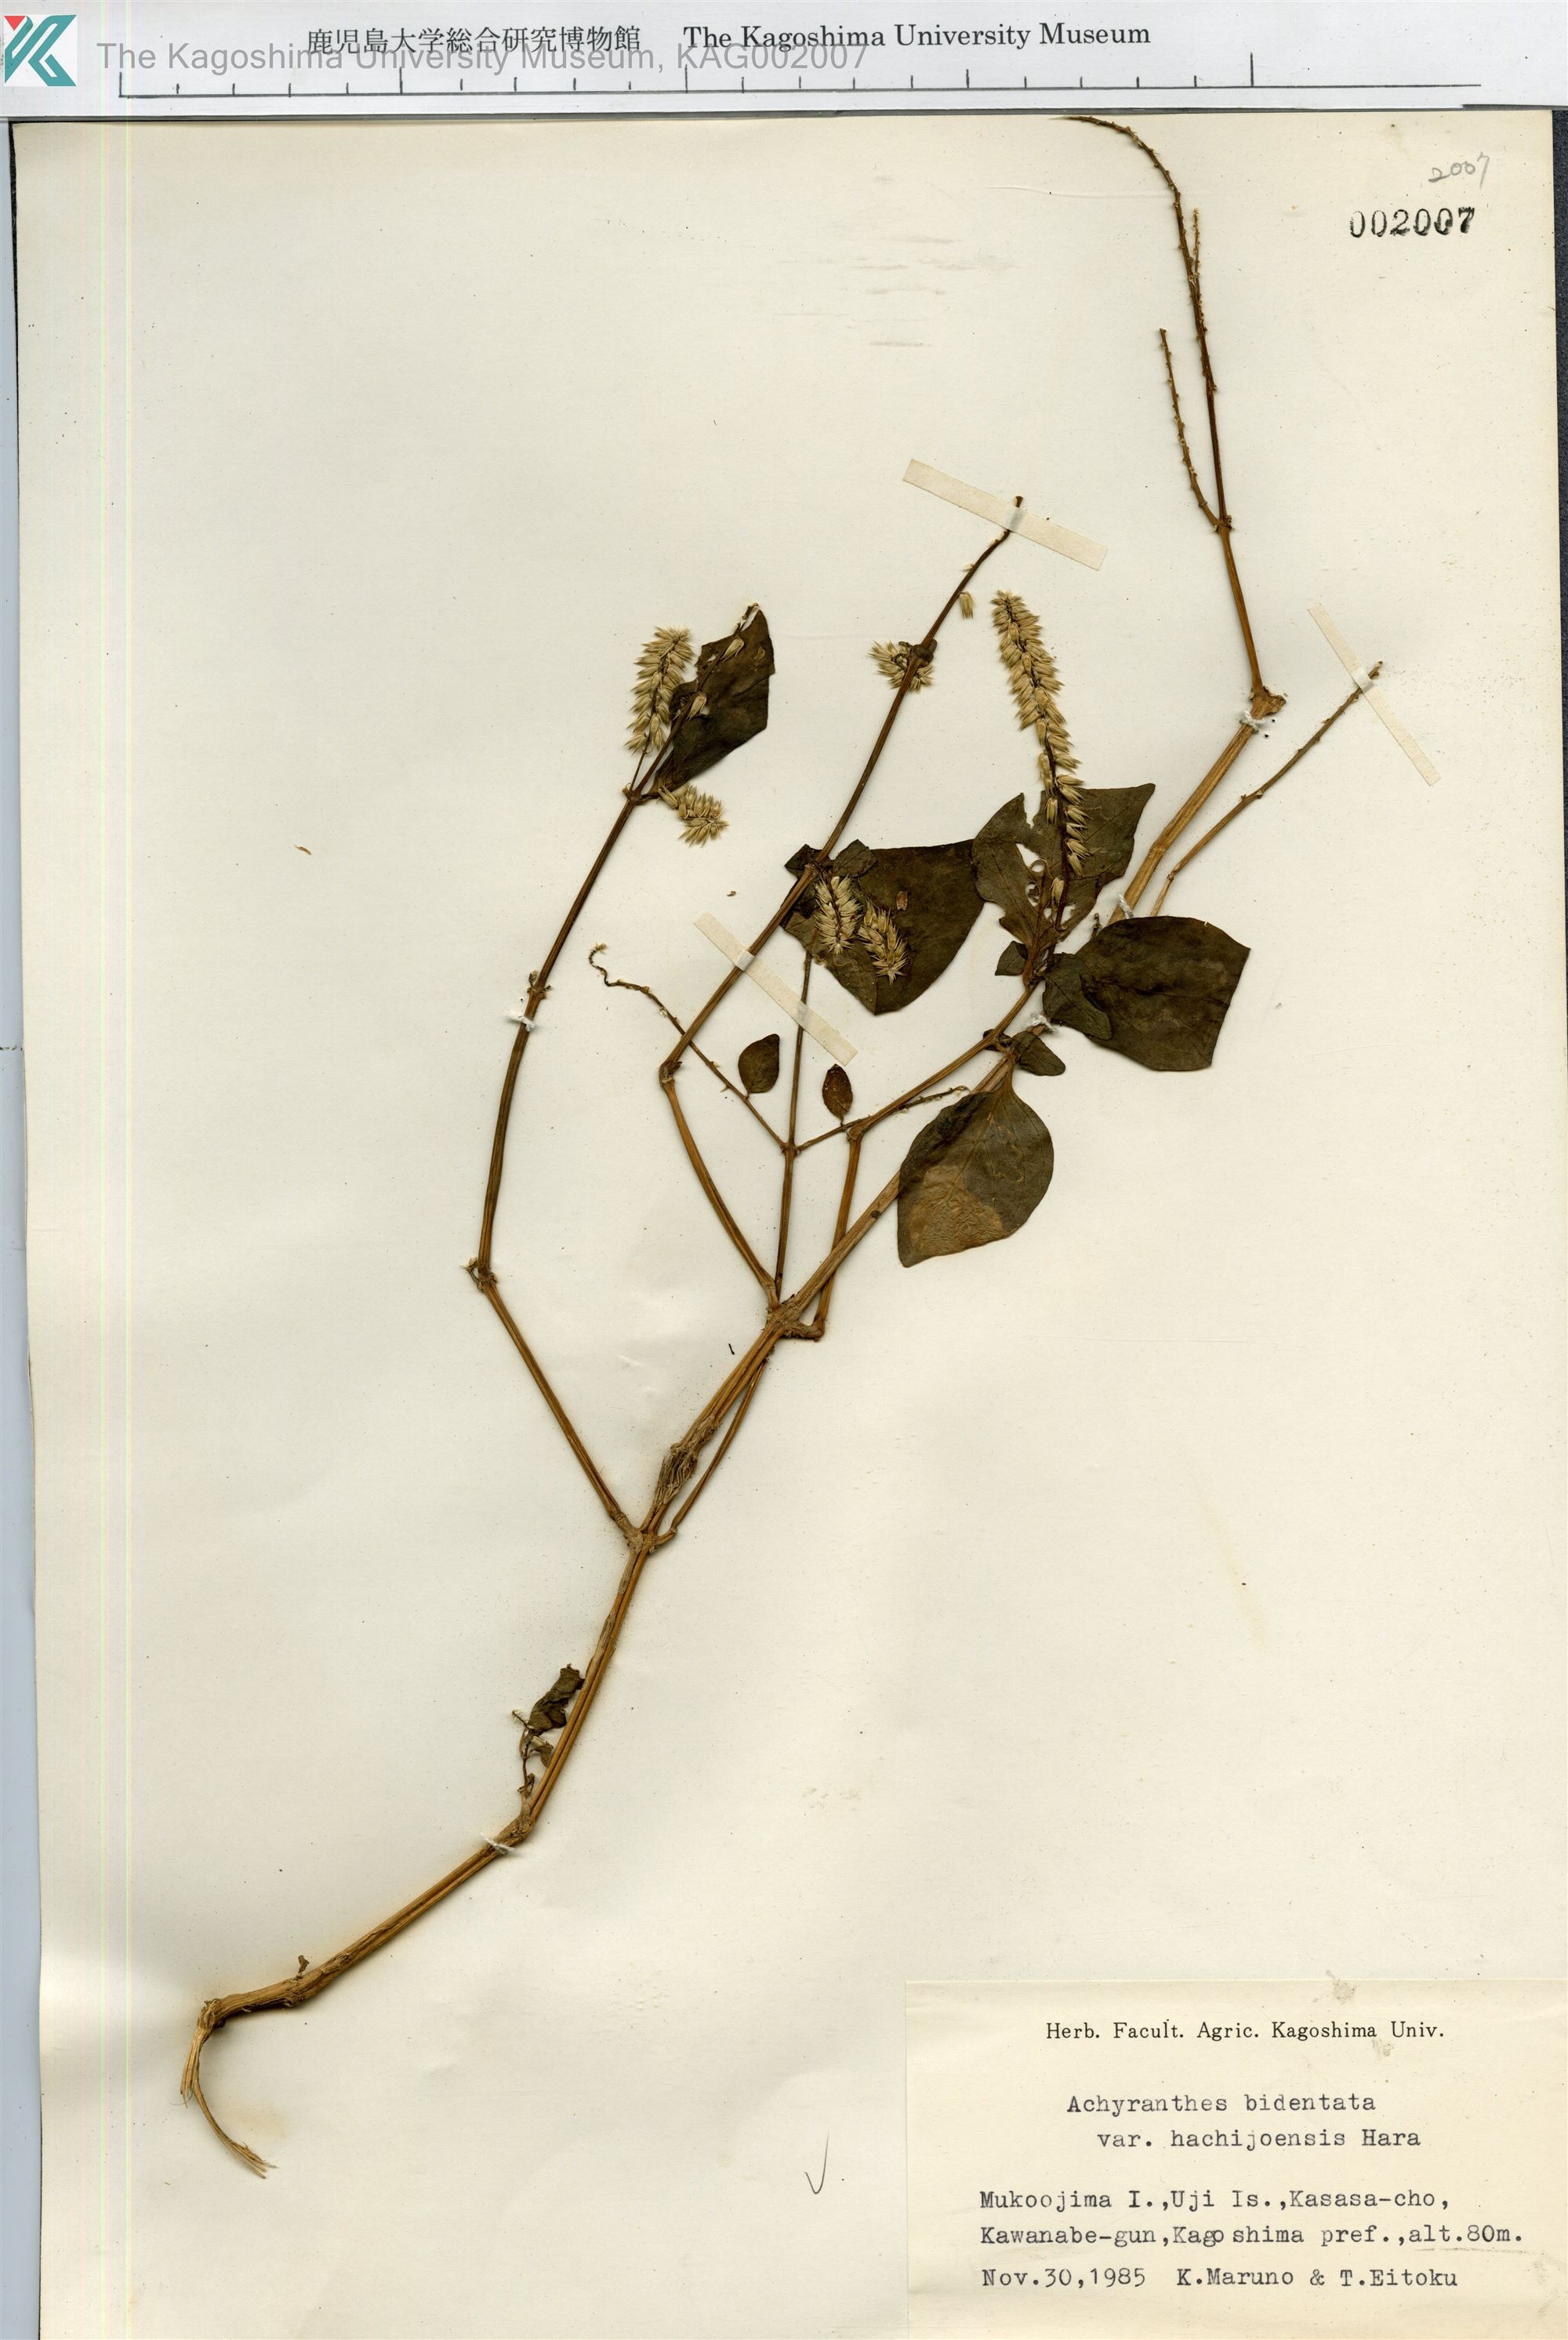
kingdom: Plantae
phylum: Tracheophyta
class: Magnoliopsida
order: Caryophyllales
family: Amaranthaceae
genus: Achyranthes
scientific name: Achyranthes bidentata
